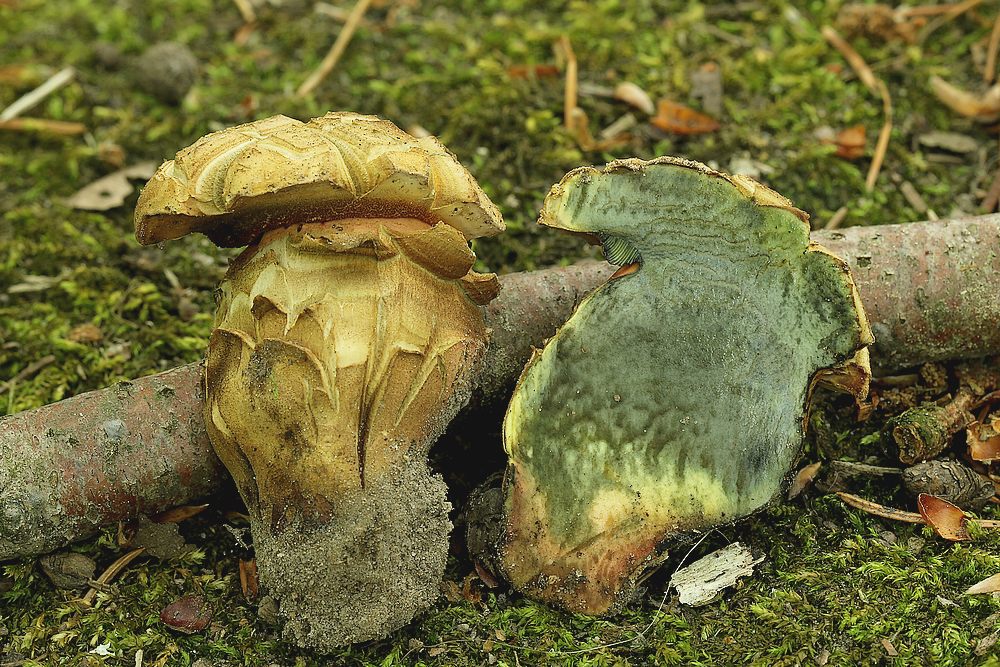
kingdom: Fungi
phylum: Basidiomycota
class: Agaricomycetes
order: Boletales
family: Boletaceae
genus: Neoboletus
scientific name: Neoboletus erythropus
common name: punktstokket indigorørhat
